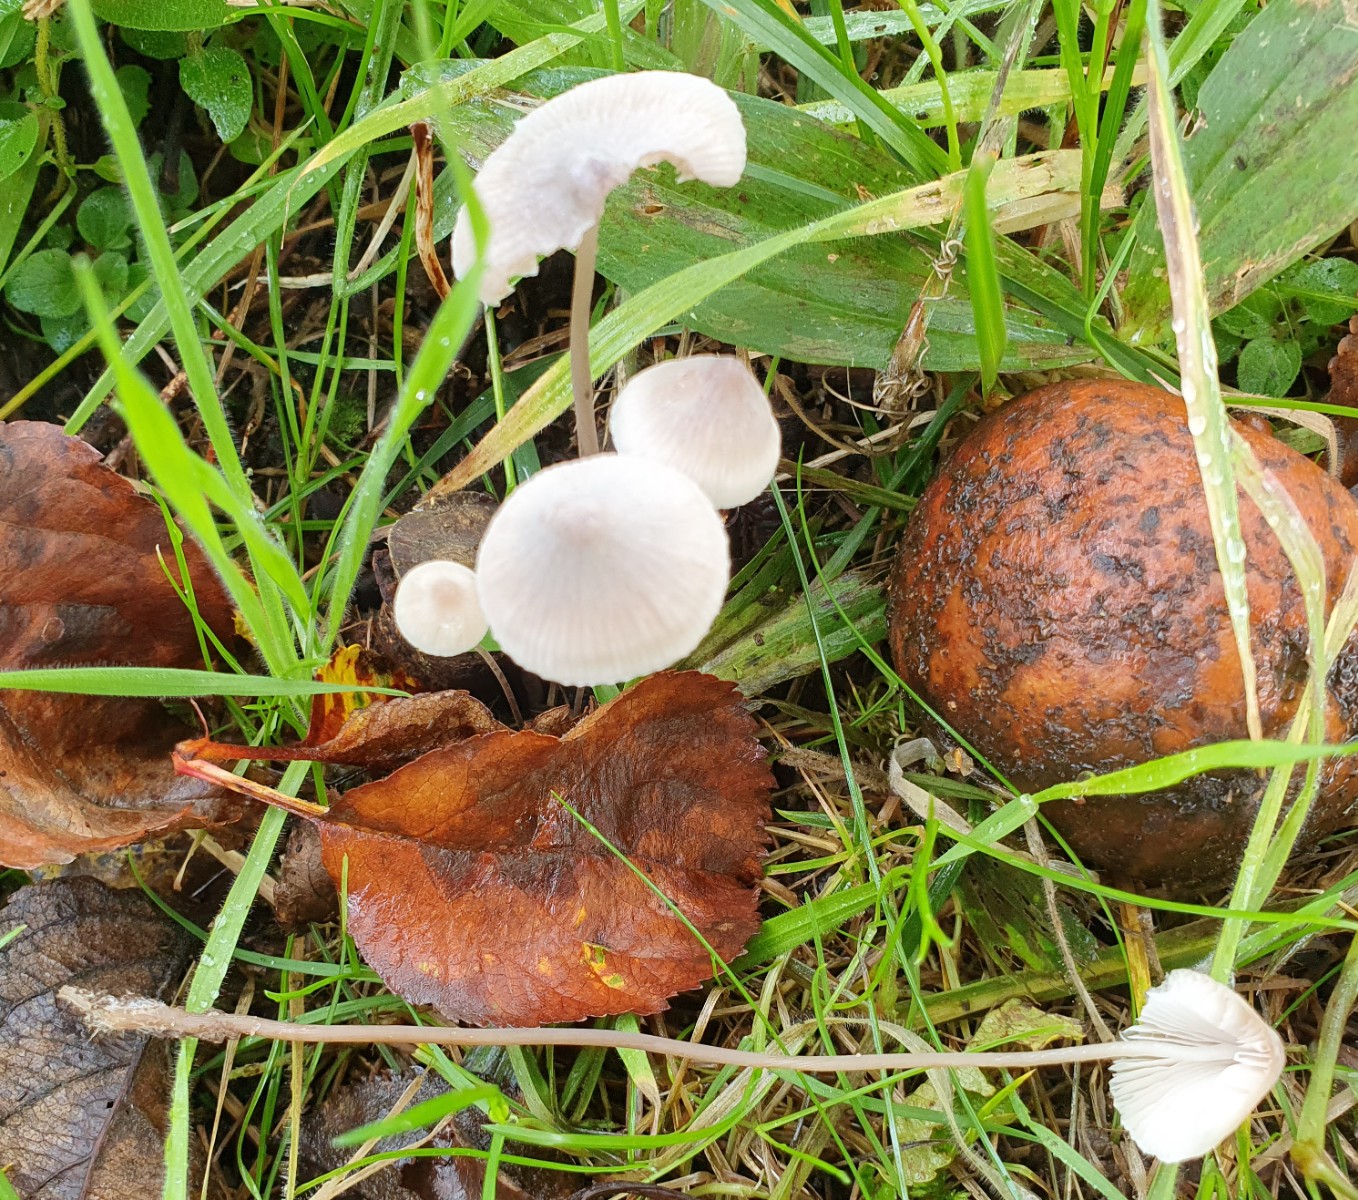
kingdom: Fungi
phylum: Basidiomycota
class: Agaricomycetes
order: Agaricales
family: Mycenaceae
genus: Mycena
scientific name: Mycena filopes
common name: jod-huesvamp
